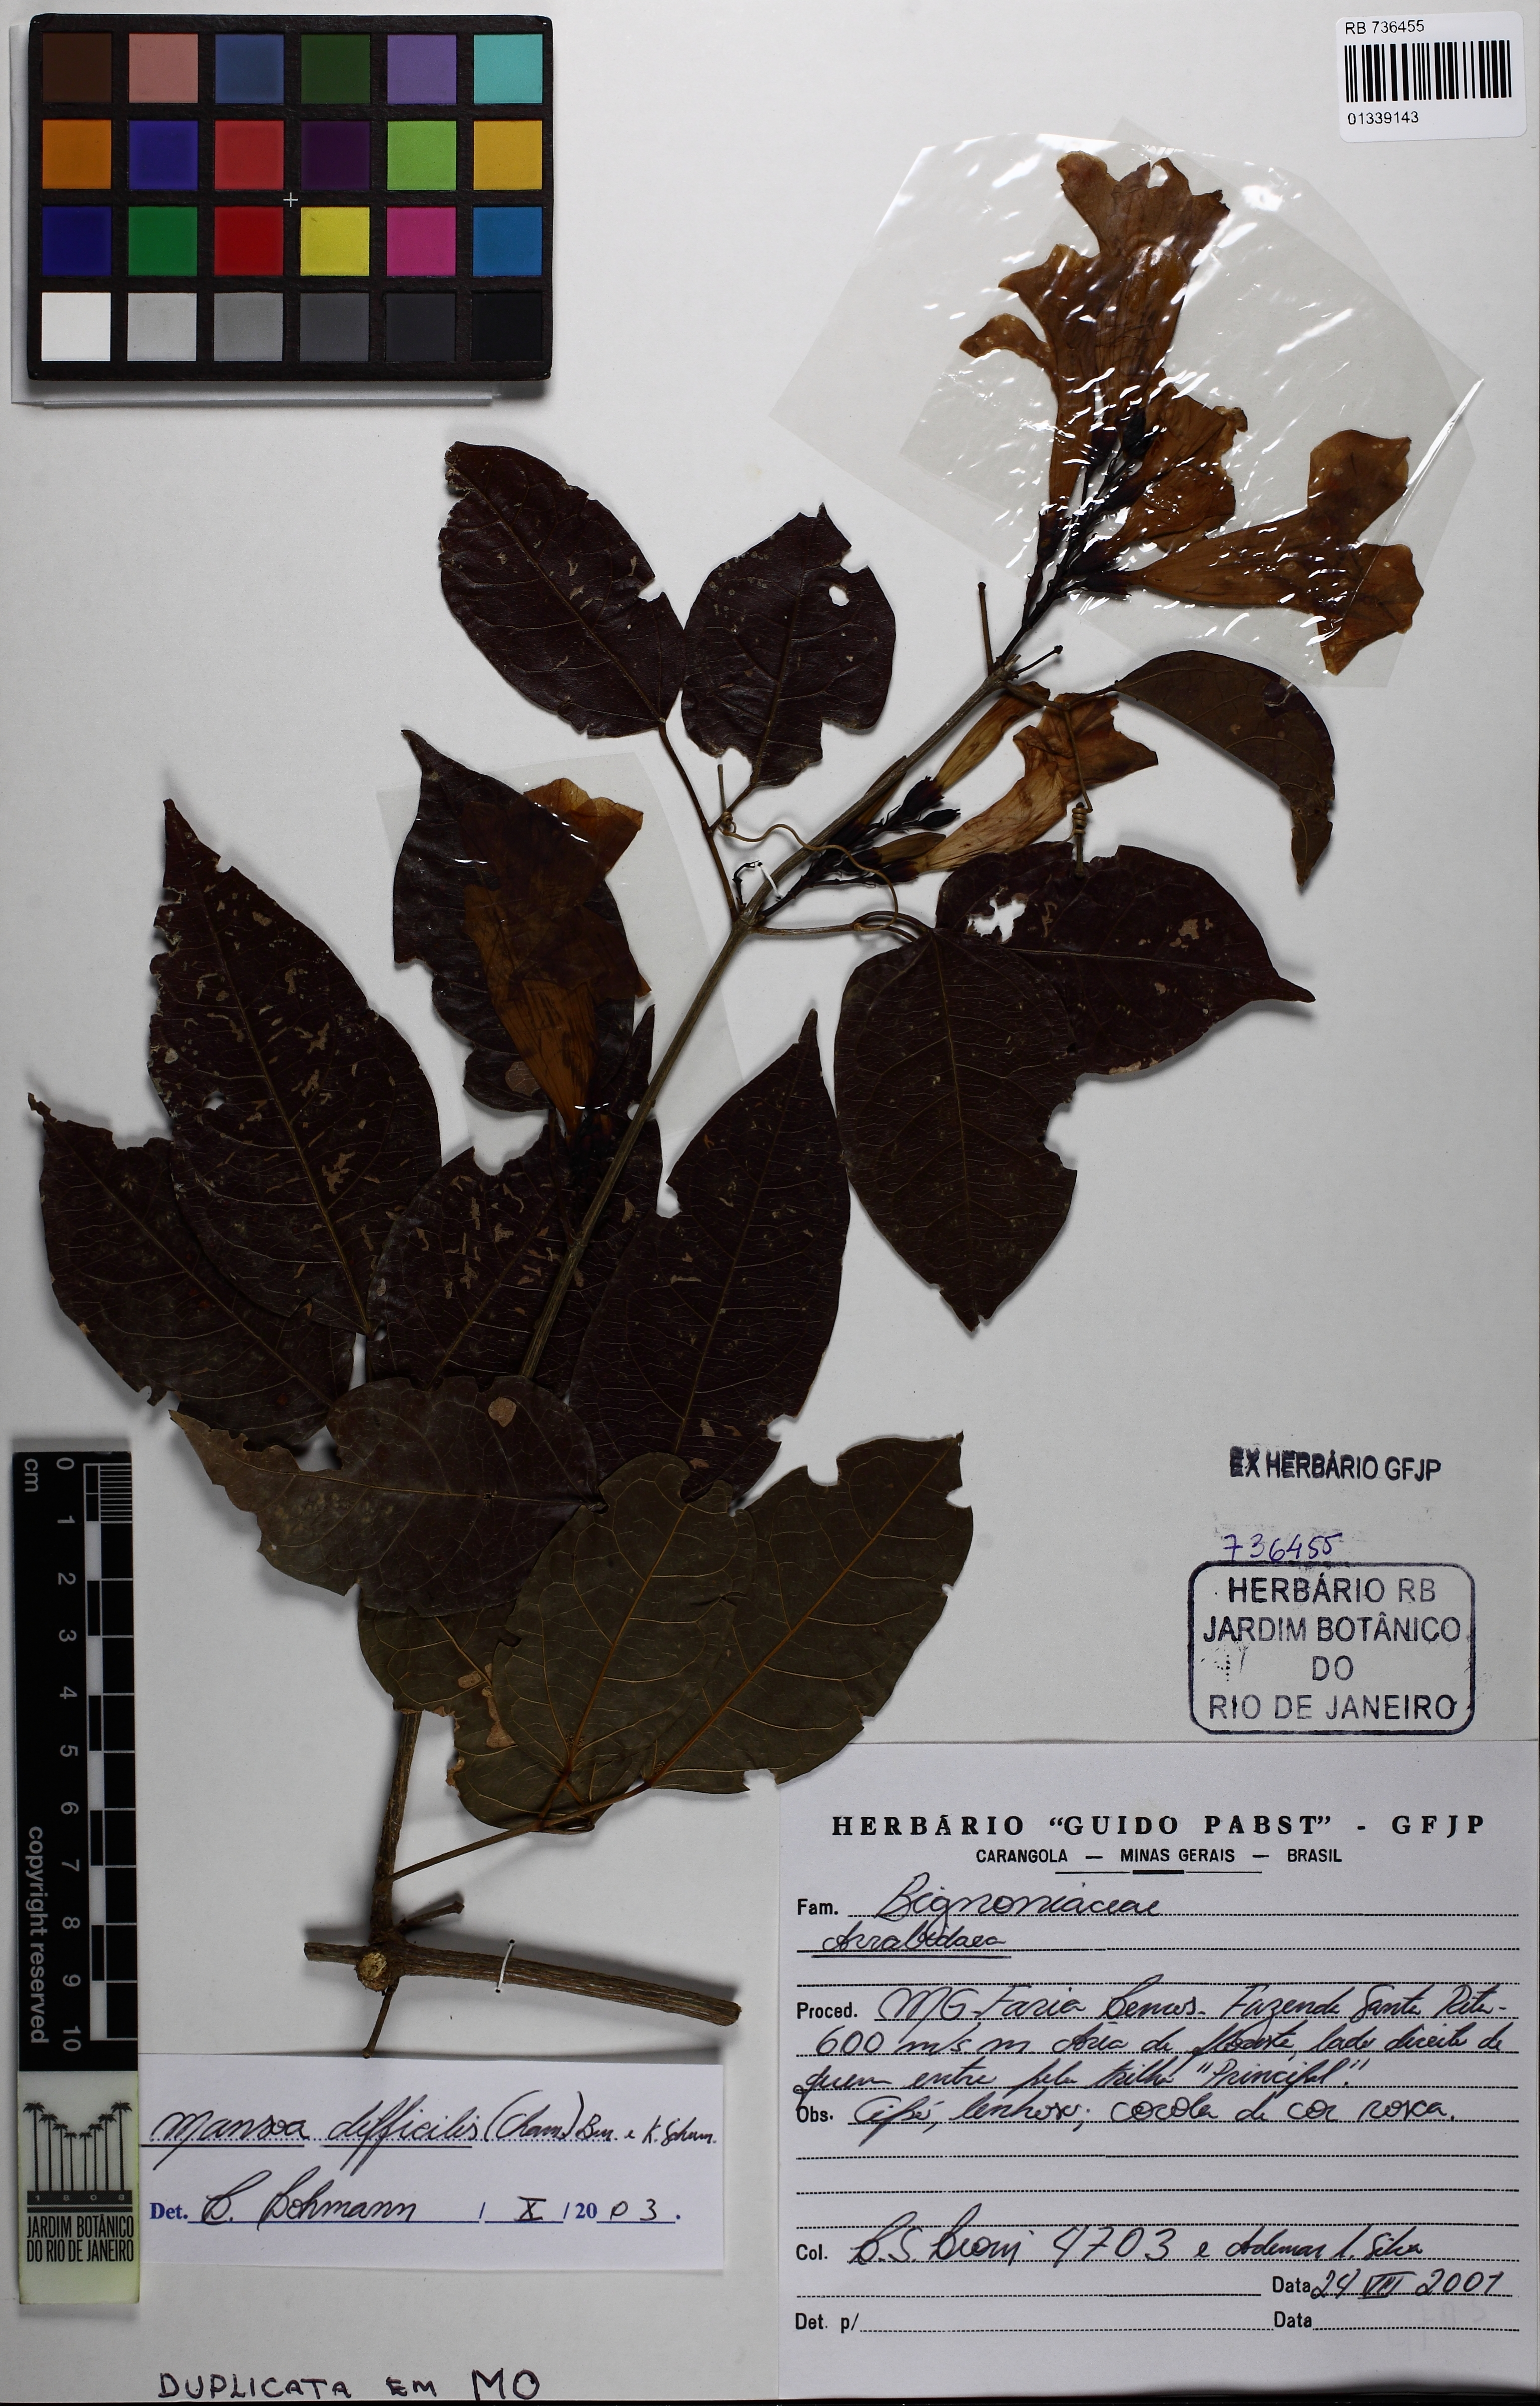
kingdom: Plantae
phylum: Tracheophyta
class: Magnoliopsida
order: Lamiales
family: Bignoniaceae
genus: Mansoa
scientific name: Mansoa difficilis
